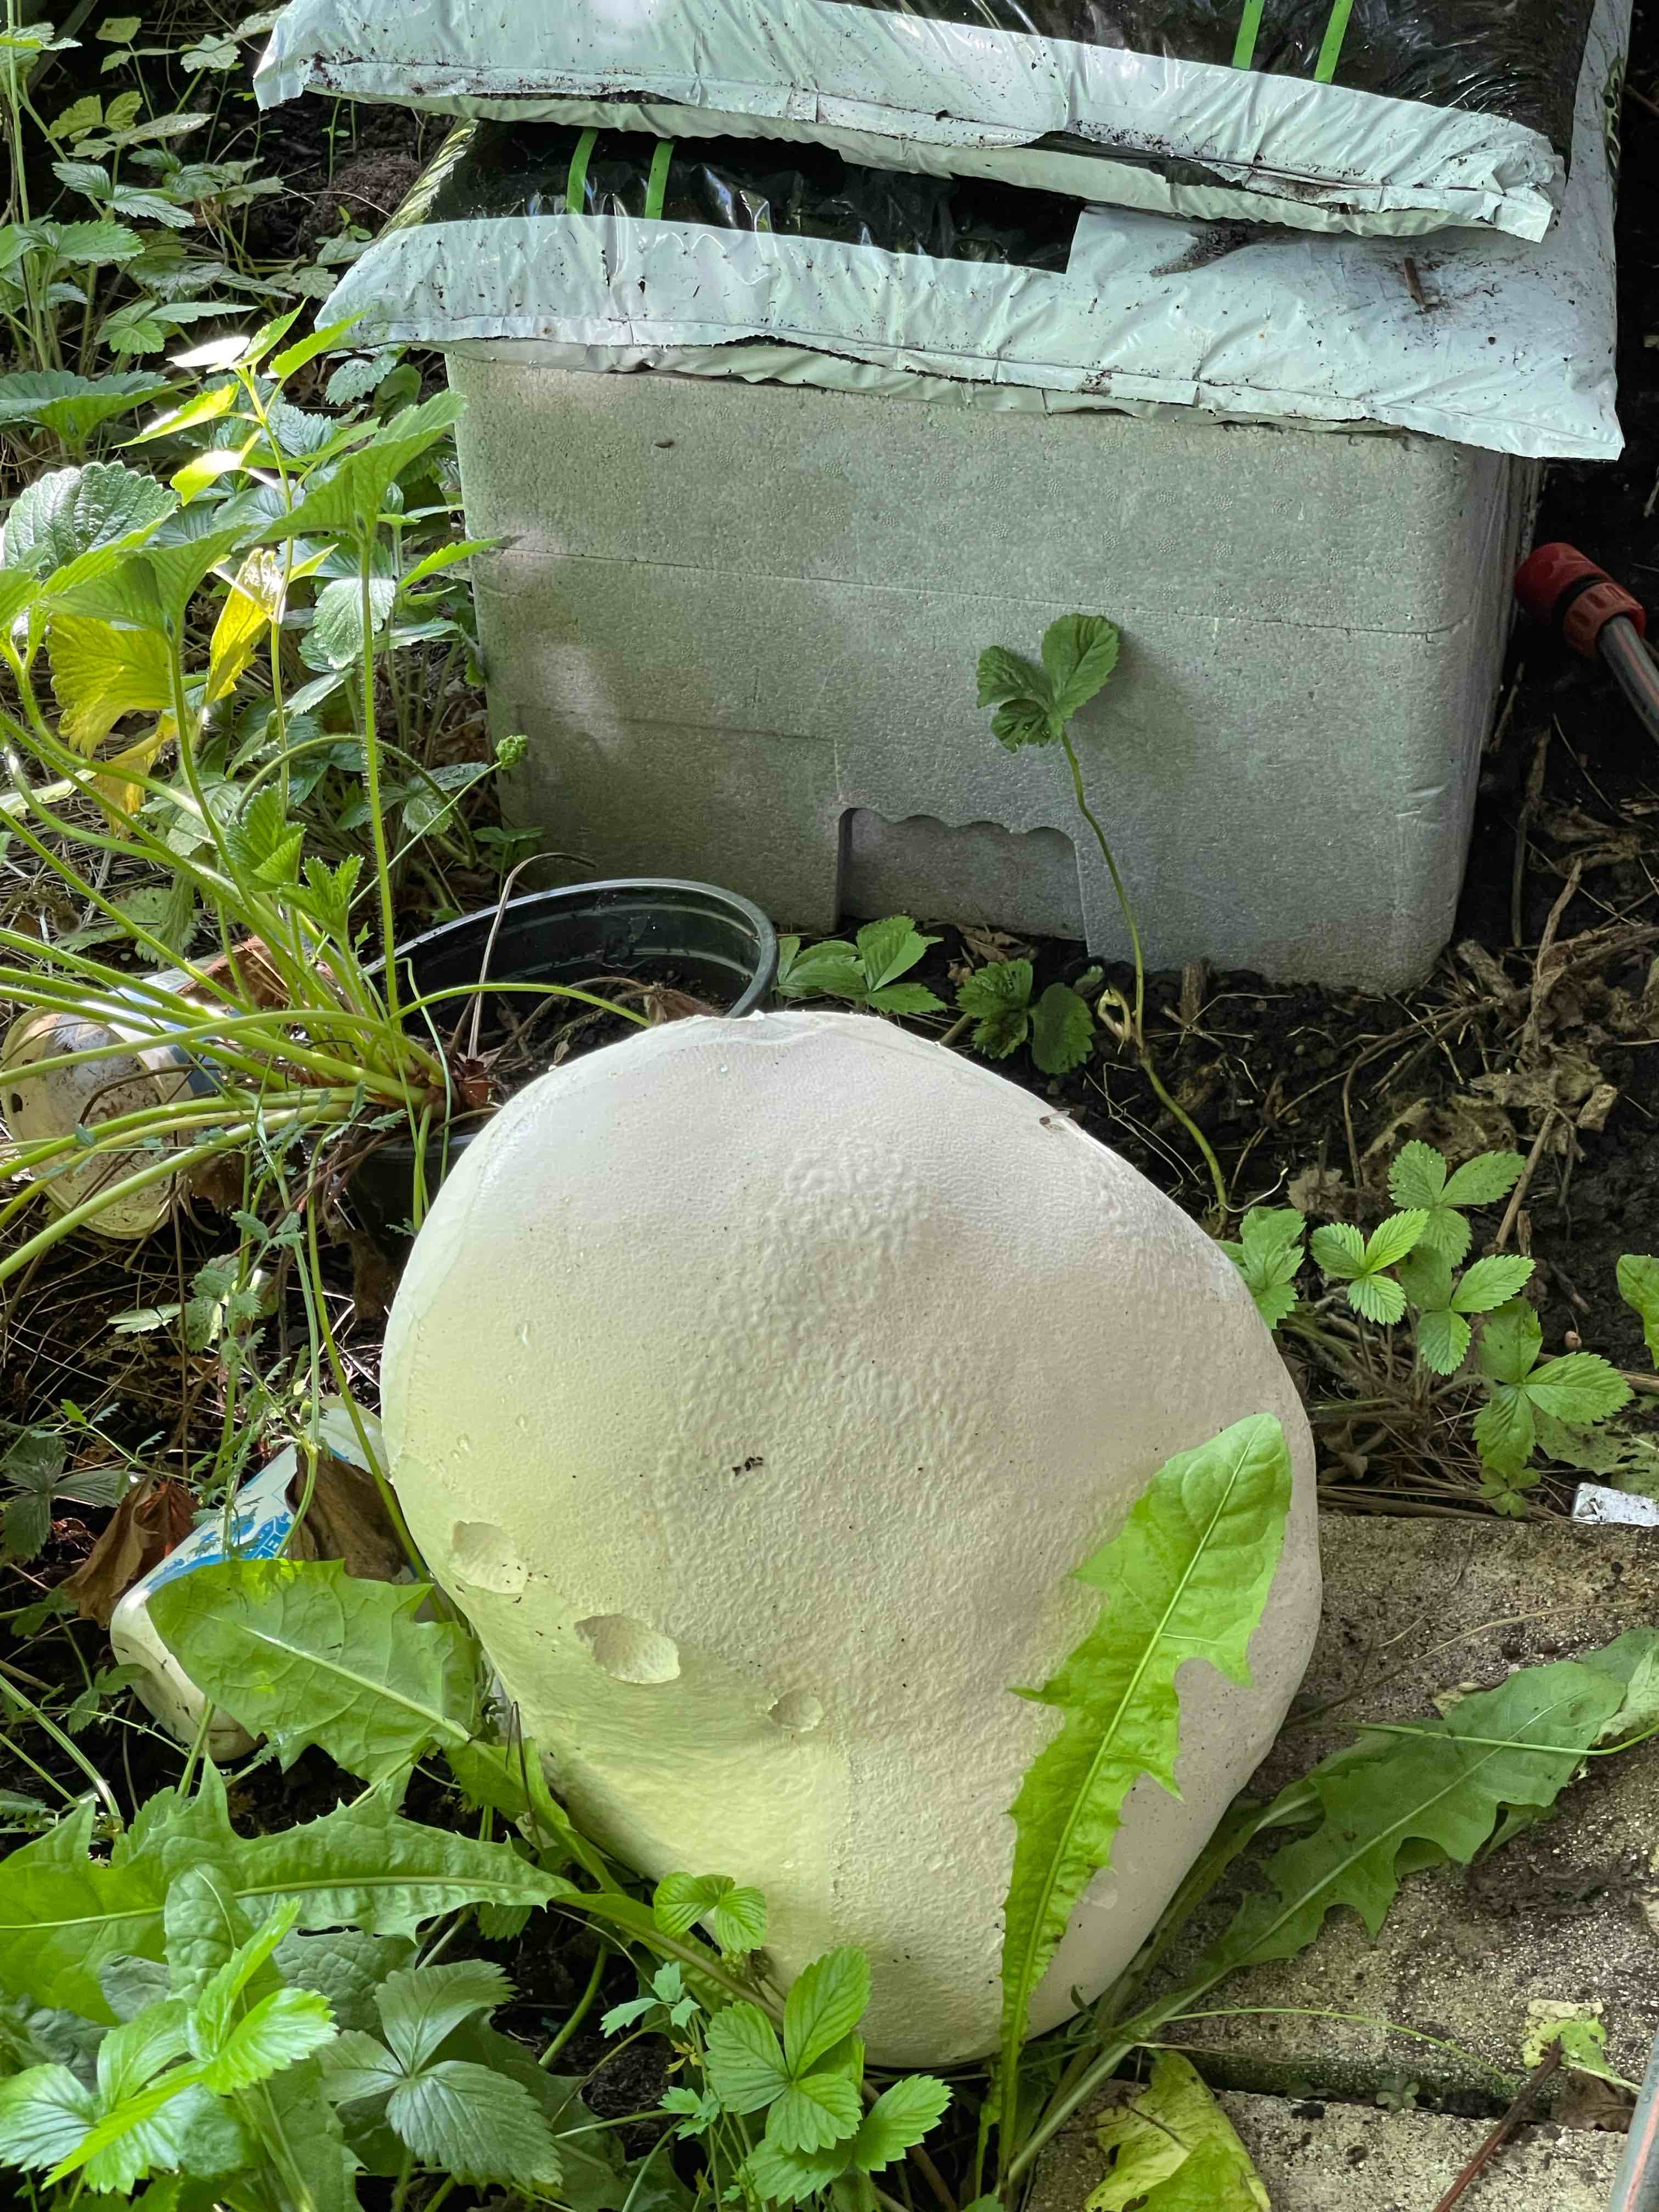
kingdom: Fungi
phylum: Basidiomycota
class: Agaricomycetes
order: Agaricales
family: Lycoperdaceae
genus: Calvatia
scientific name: Calvatia gigantea
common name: kæmpestøvbold
